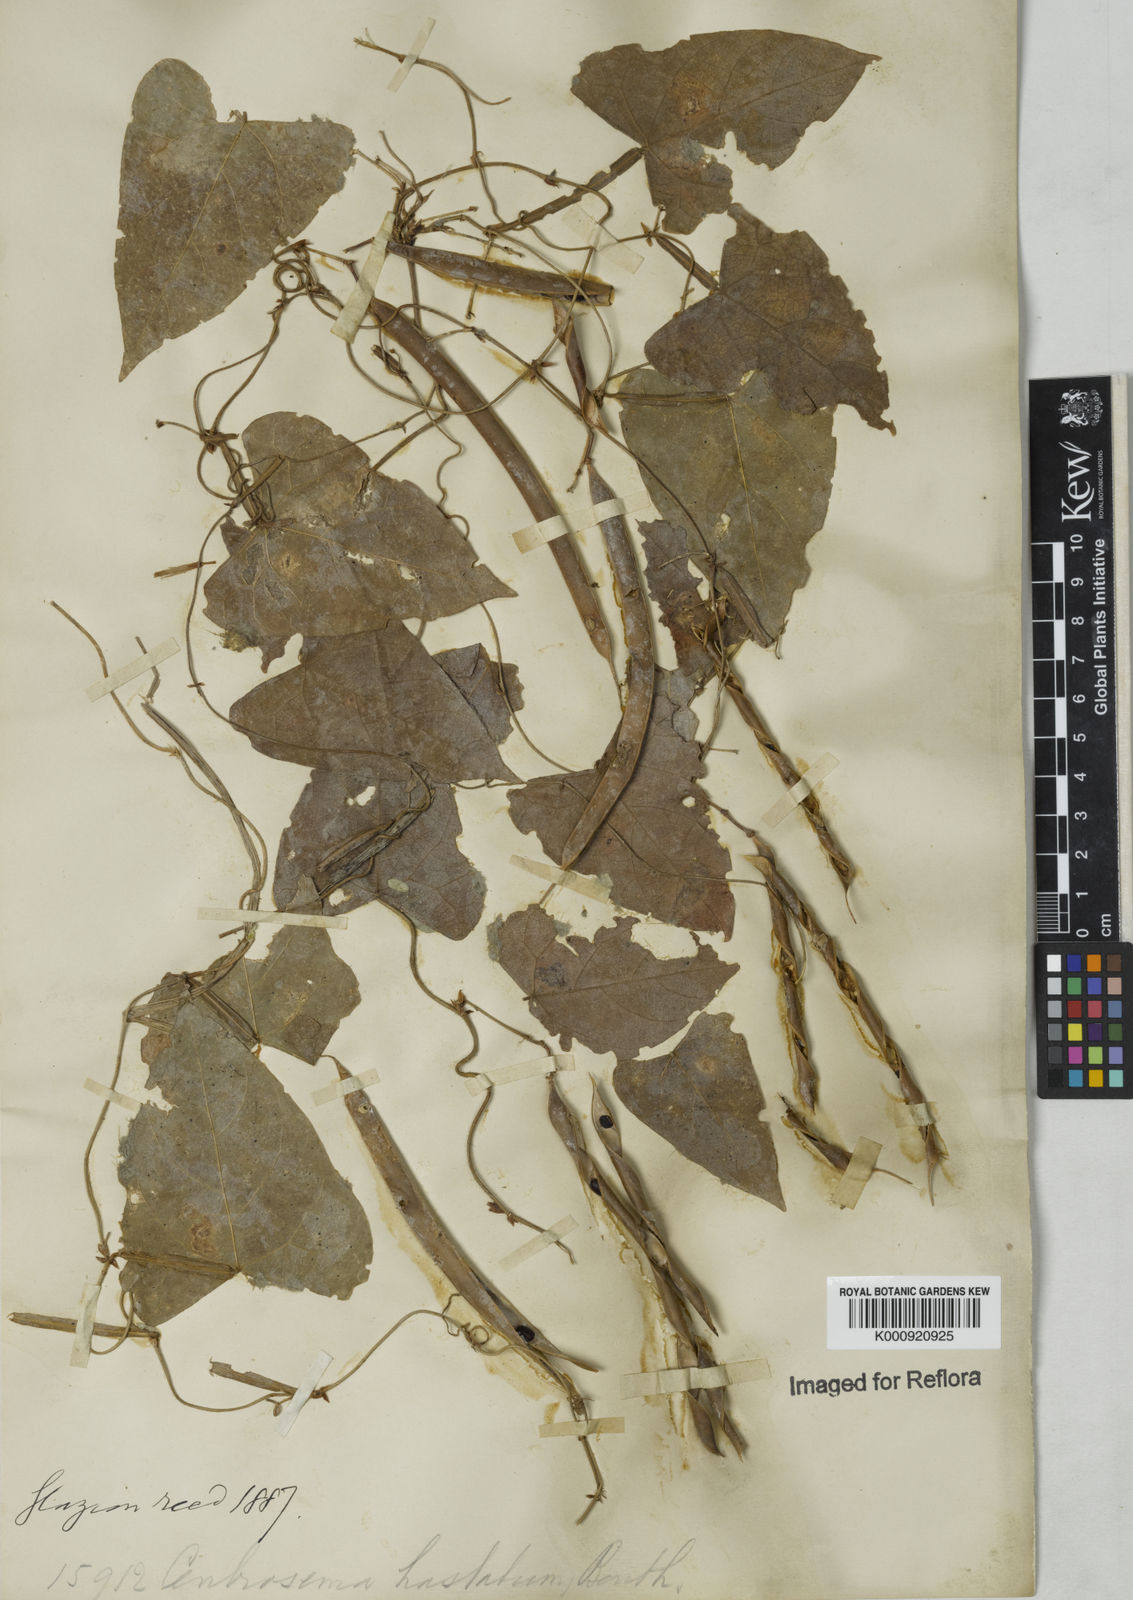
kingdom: Plantae
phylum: Tracheophyta
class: Magnoliopsida
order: Fabales
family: Fabaceae
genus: Centrosema
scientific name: Centrosema sagittatum
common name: Arrowleaf butterfly pea
